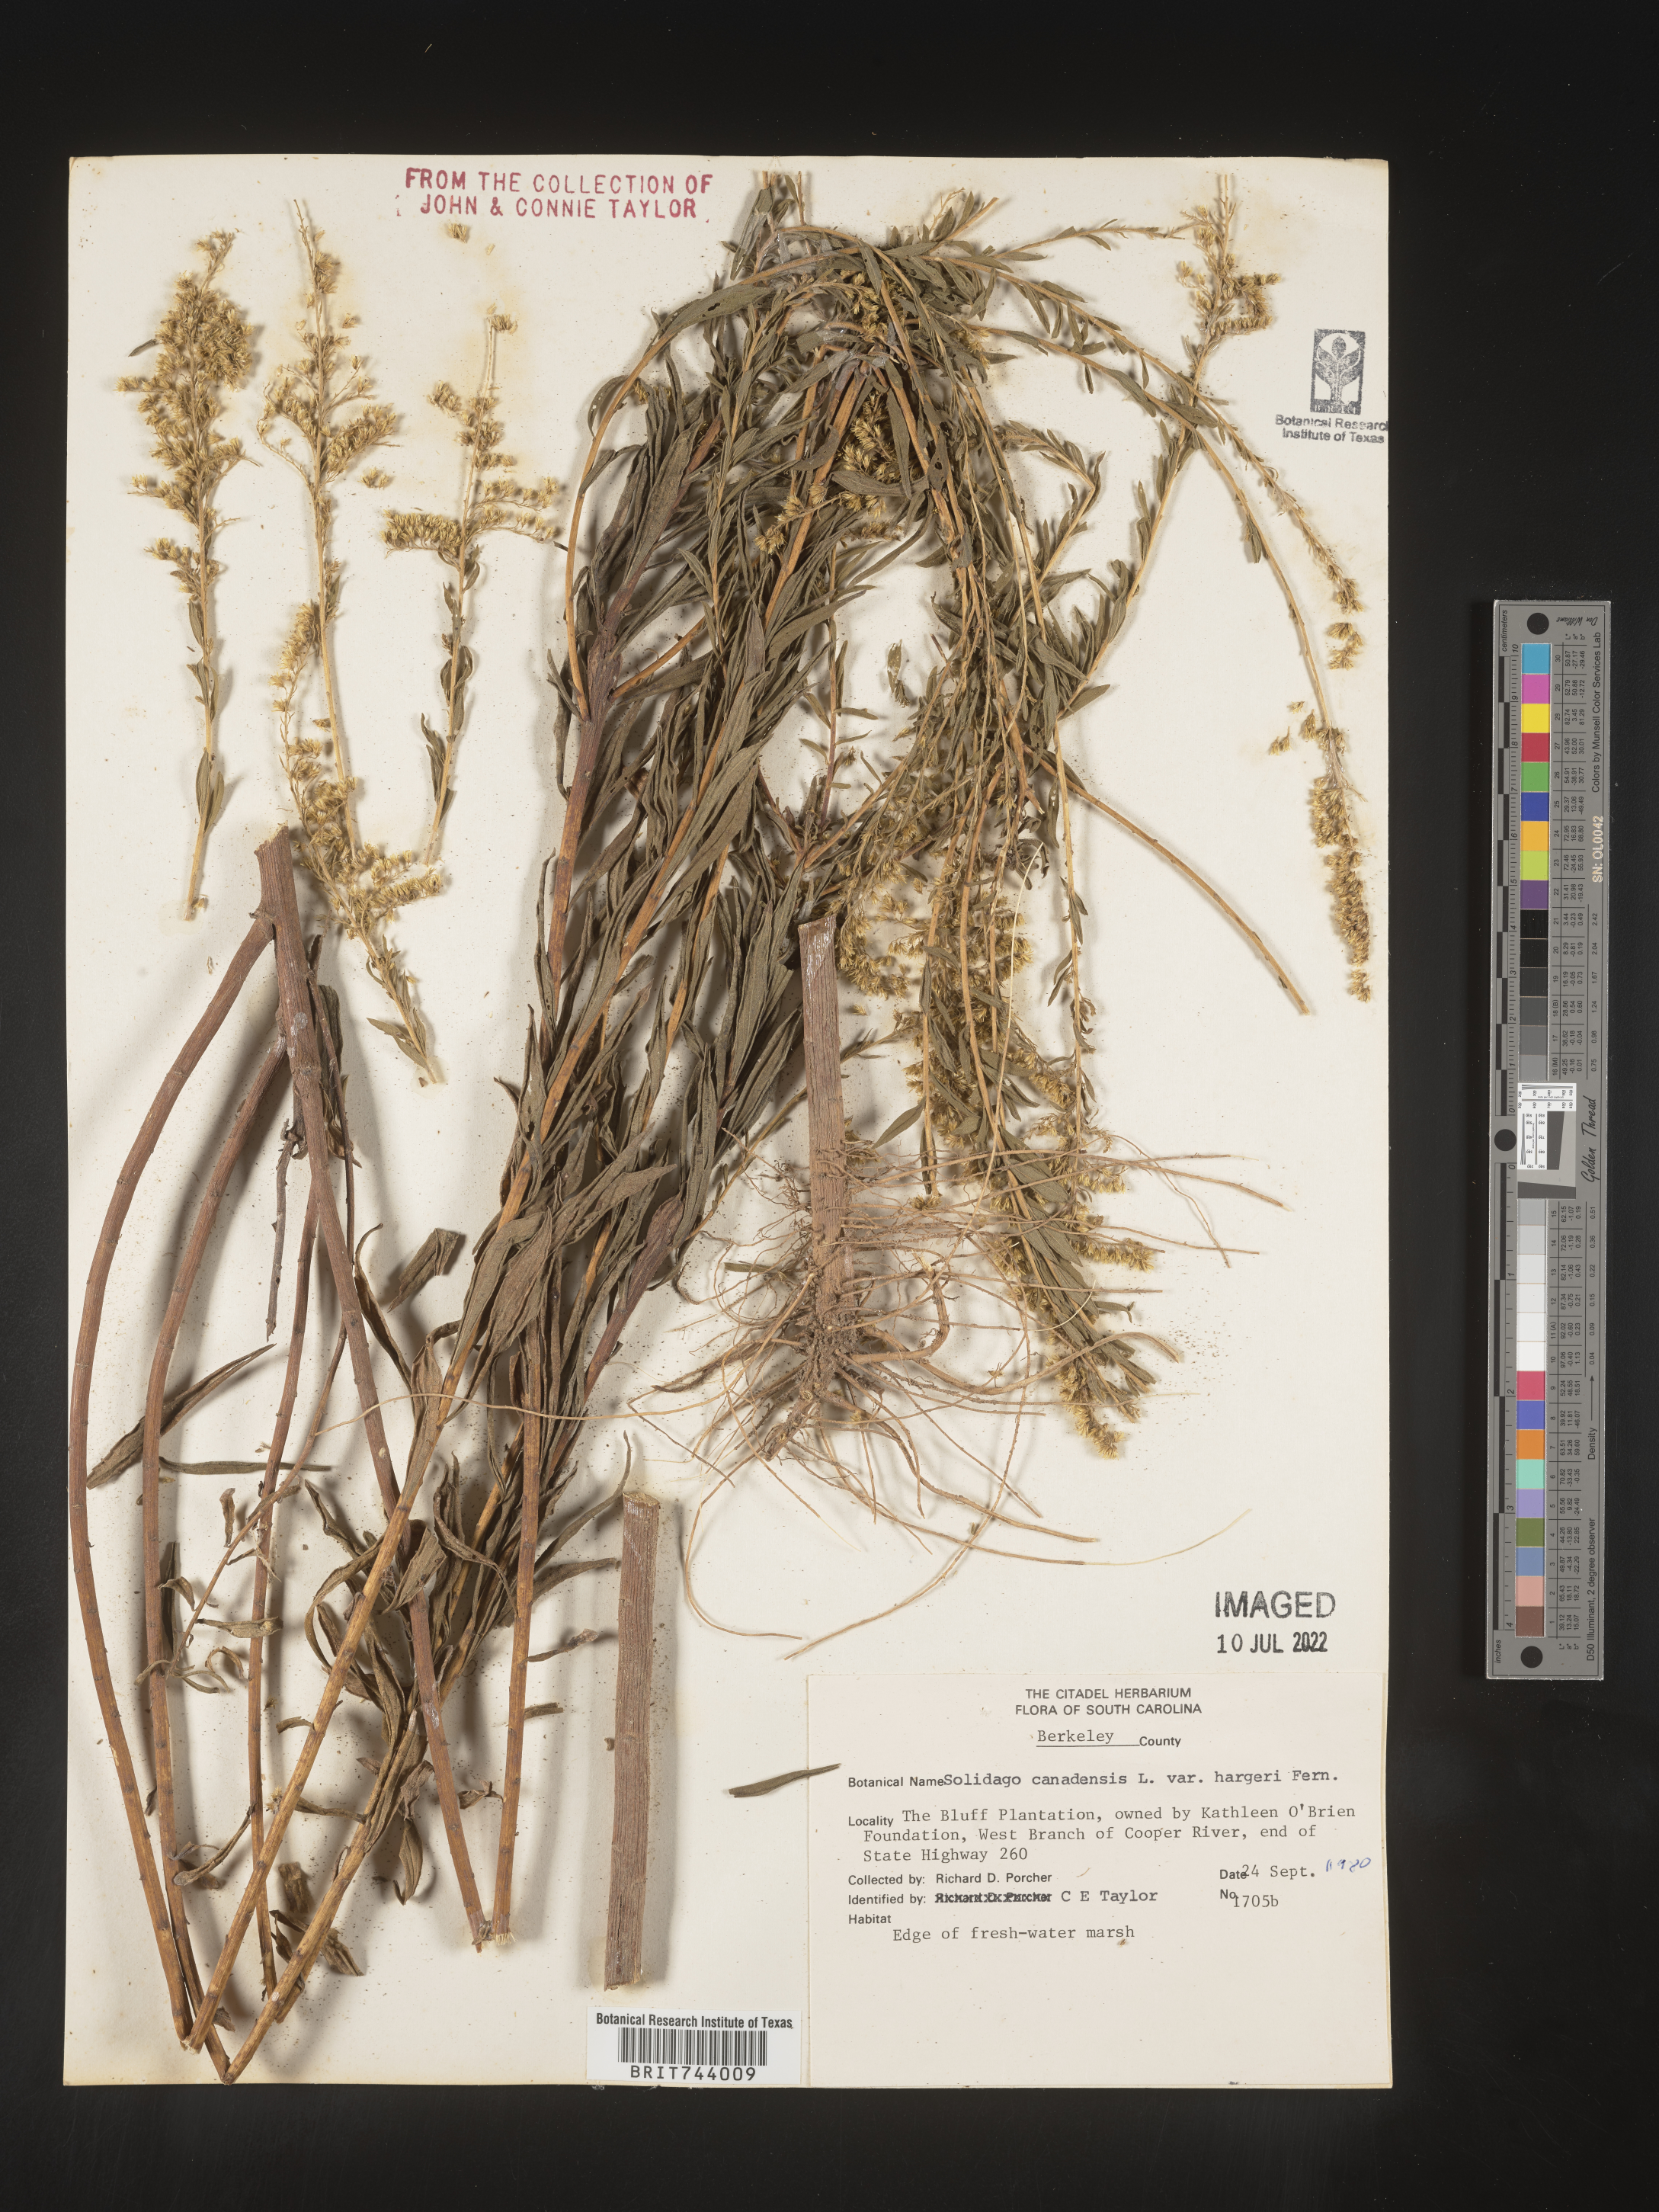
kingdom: Plantae
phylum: Tracheophyta
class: Magnoliopsida
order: Asterales
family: Asteraceae
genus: Solidago
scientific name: Solidago altissima
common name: Late goldenrod
